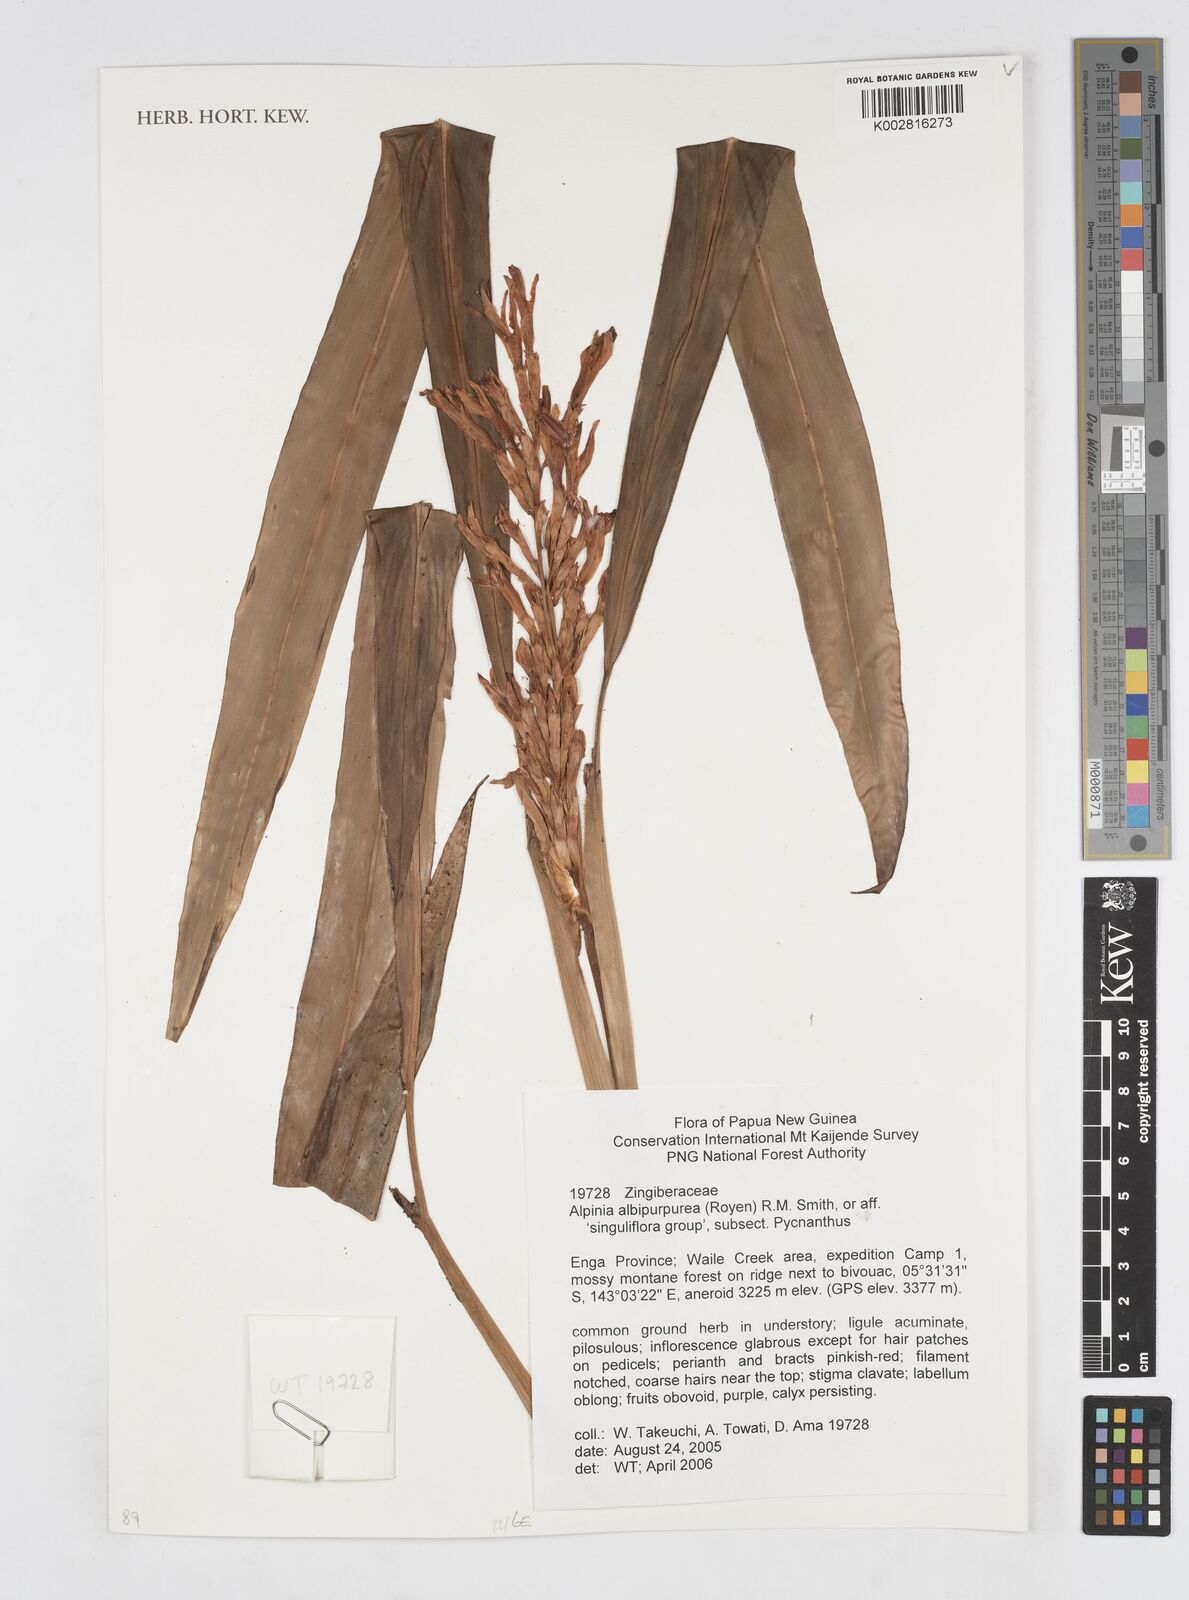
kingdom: Plantae
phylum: Tracheophyta
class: Liliopsida
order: Zingiberales
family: Zingiberaceae
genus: Alpinia
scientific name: Alpinia albipurpurea
